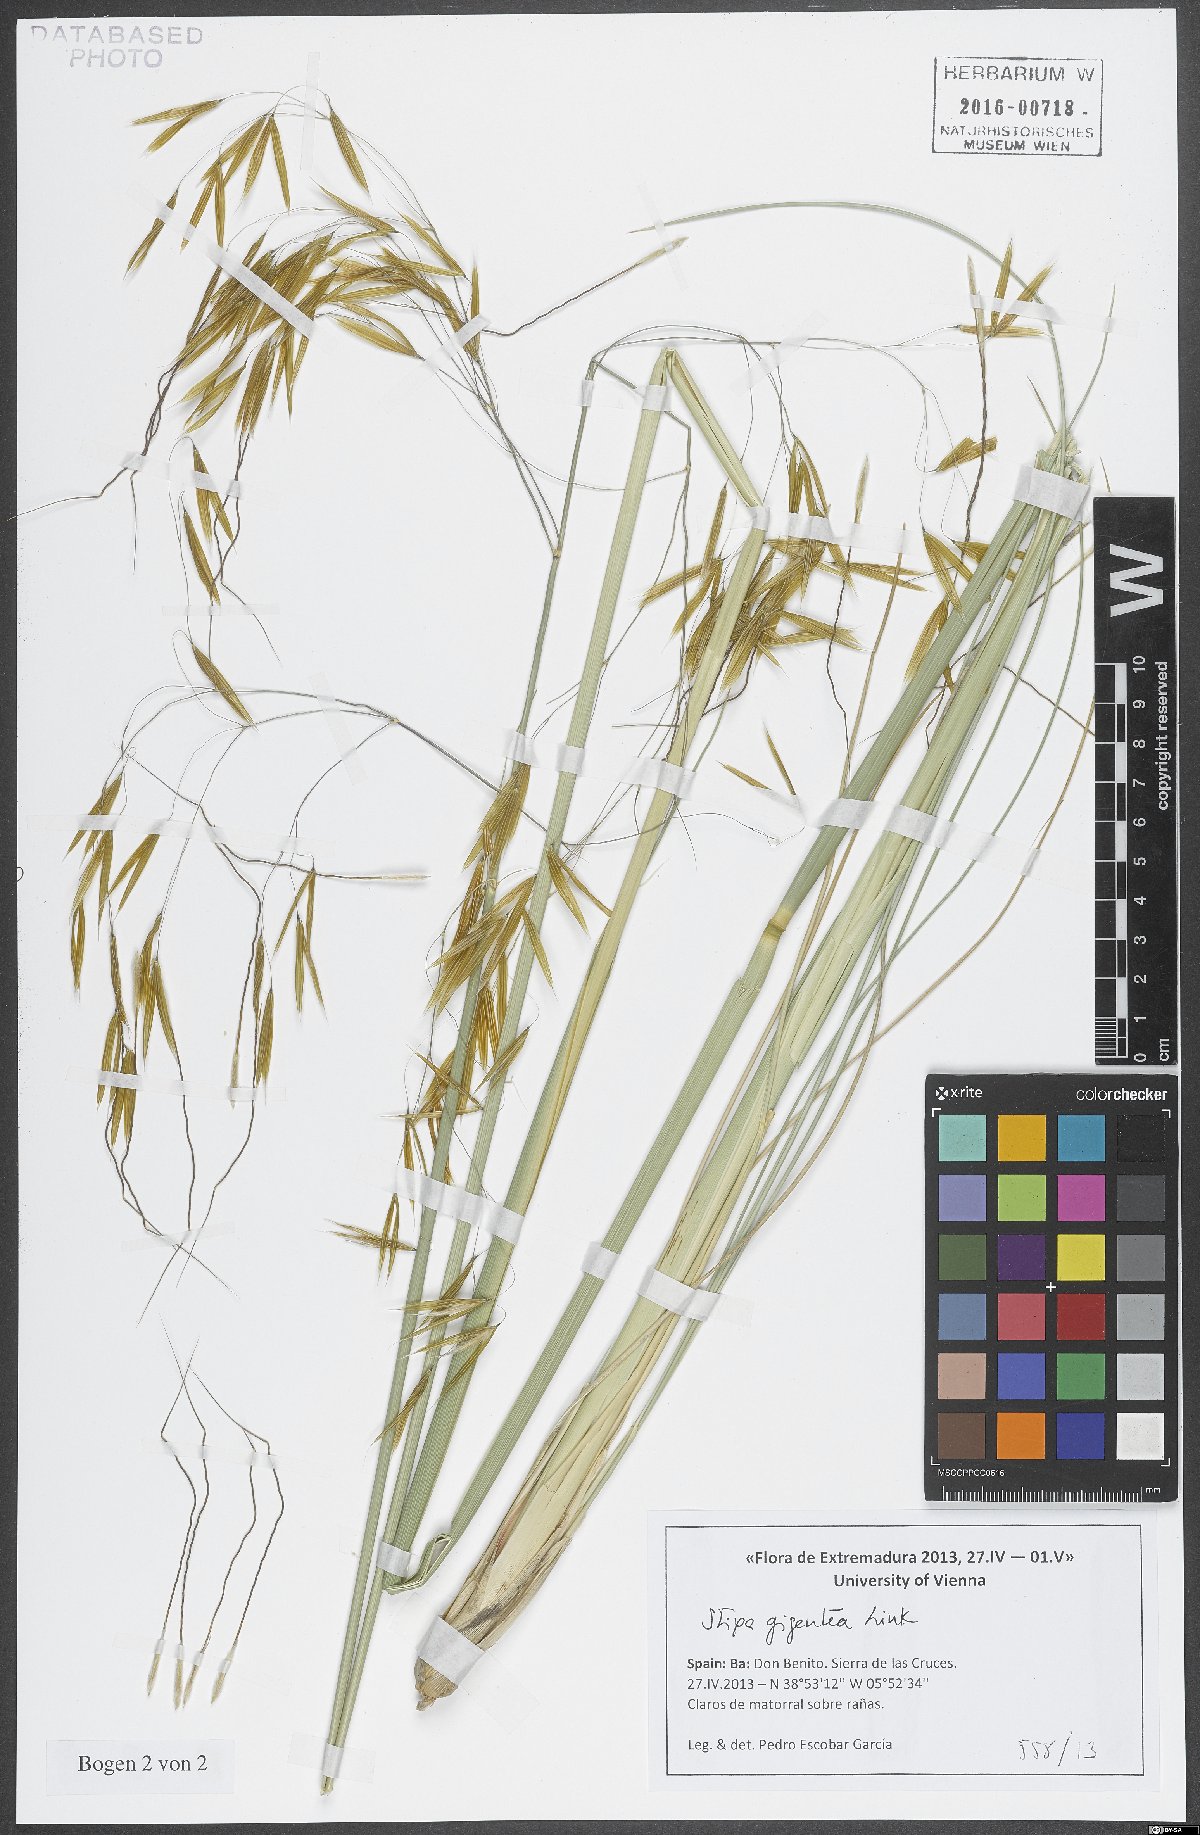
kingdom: Plantae
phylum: Tracheophyta
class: Liliopsida
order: Poales
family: Poaceae
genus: Celtica
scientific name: Celtica gigantea
